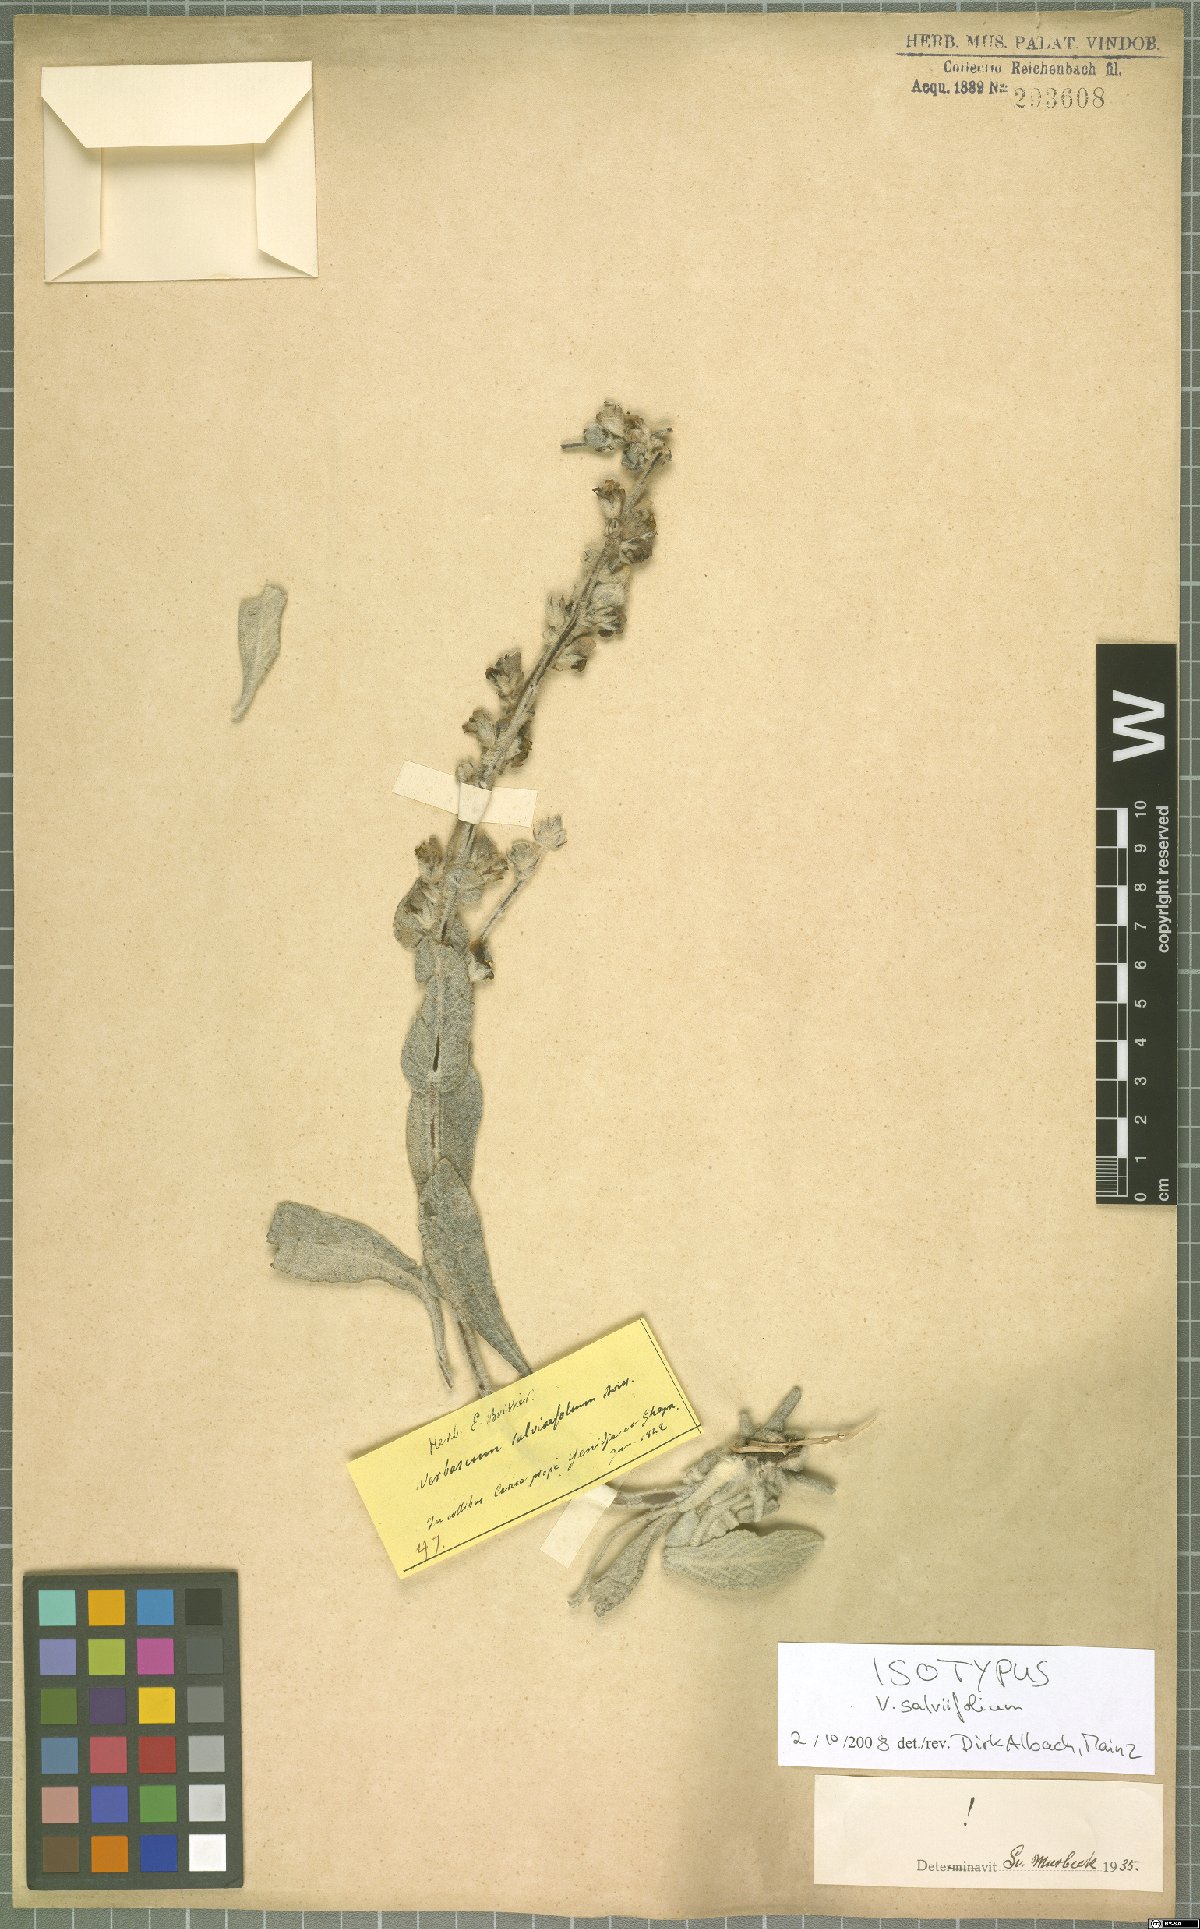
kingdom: Plantae
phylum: Tracheophyta
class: Magnoliopsida
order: Lamiales
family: Scrophulariaceae
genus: Verbascum
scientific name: Verbascum salviifolium
